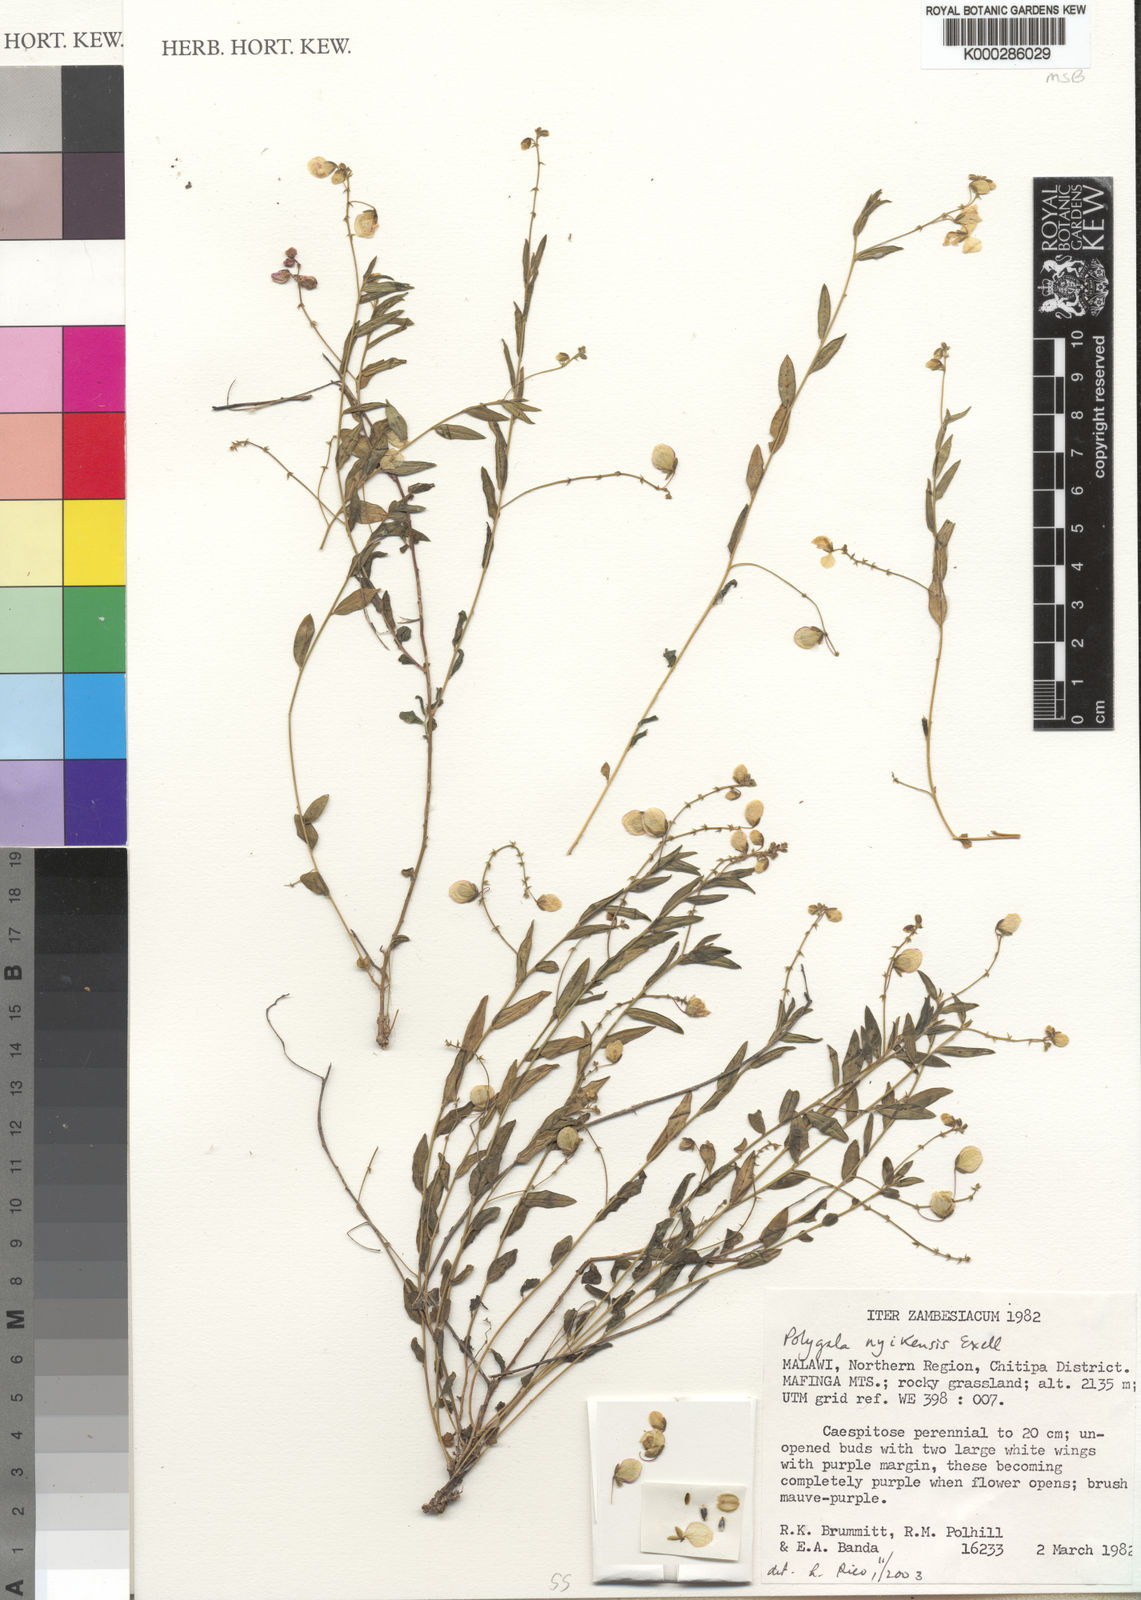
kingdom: Plantae
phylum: Tracheophyta
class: Magnoliopsida
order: Fabales
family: Polygalaceae
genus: Polygala
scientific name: Polygala nyikensis
